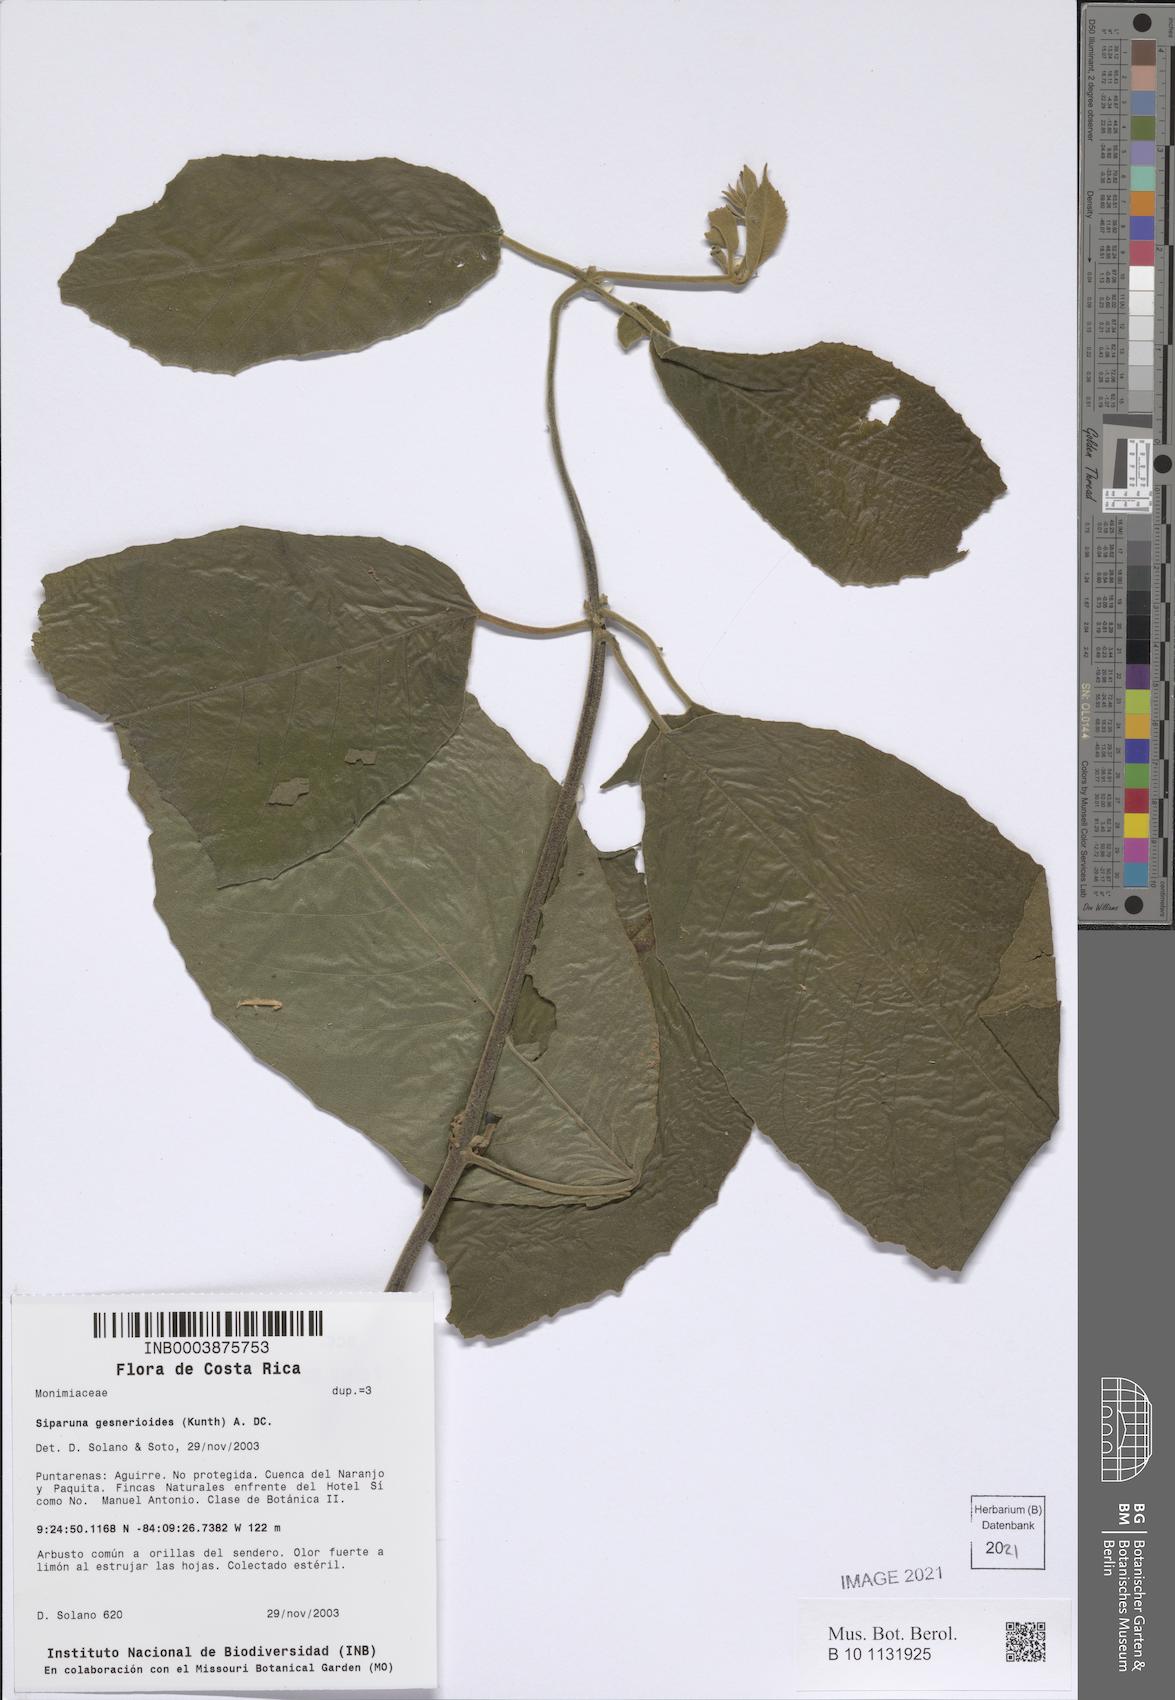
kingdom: Plantae
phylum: Tracheophyta
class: Magnoliopsida
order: Laurales
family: Siparunaceae
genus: Siparuna
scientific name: Siparuna gesnerioides
